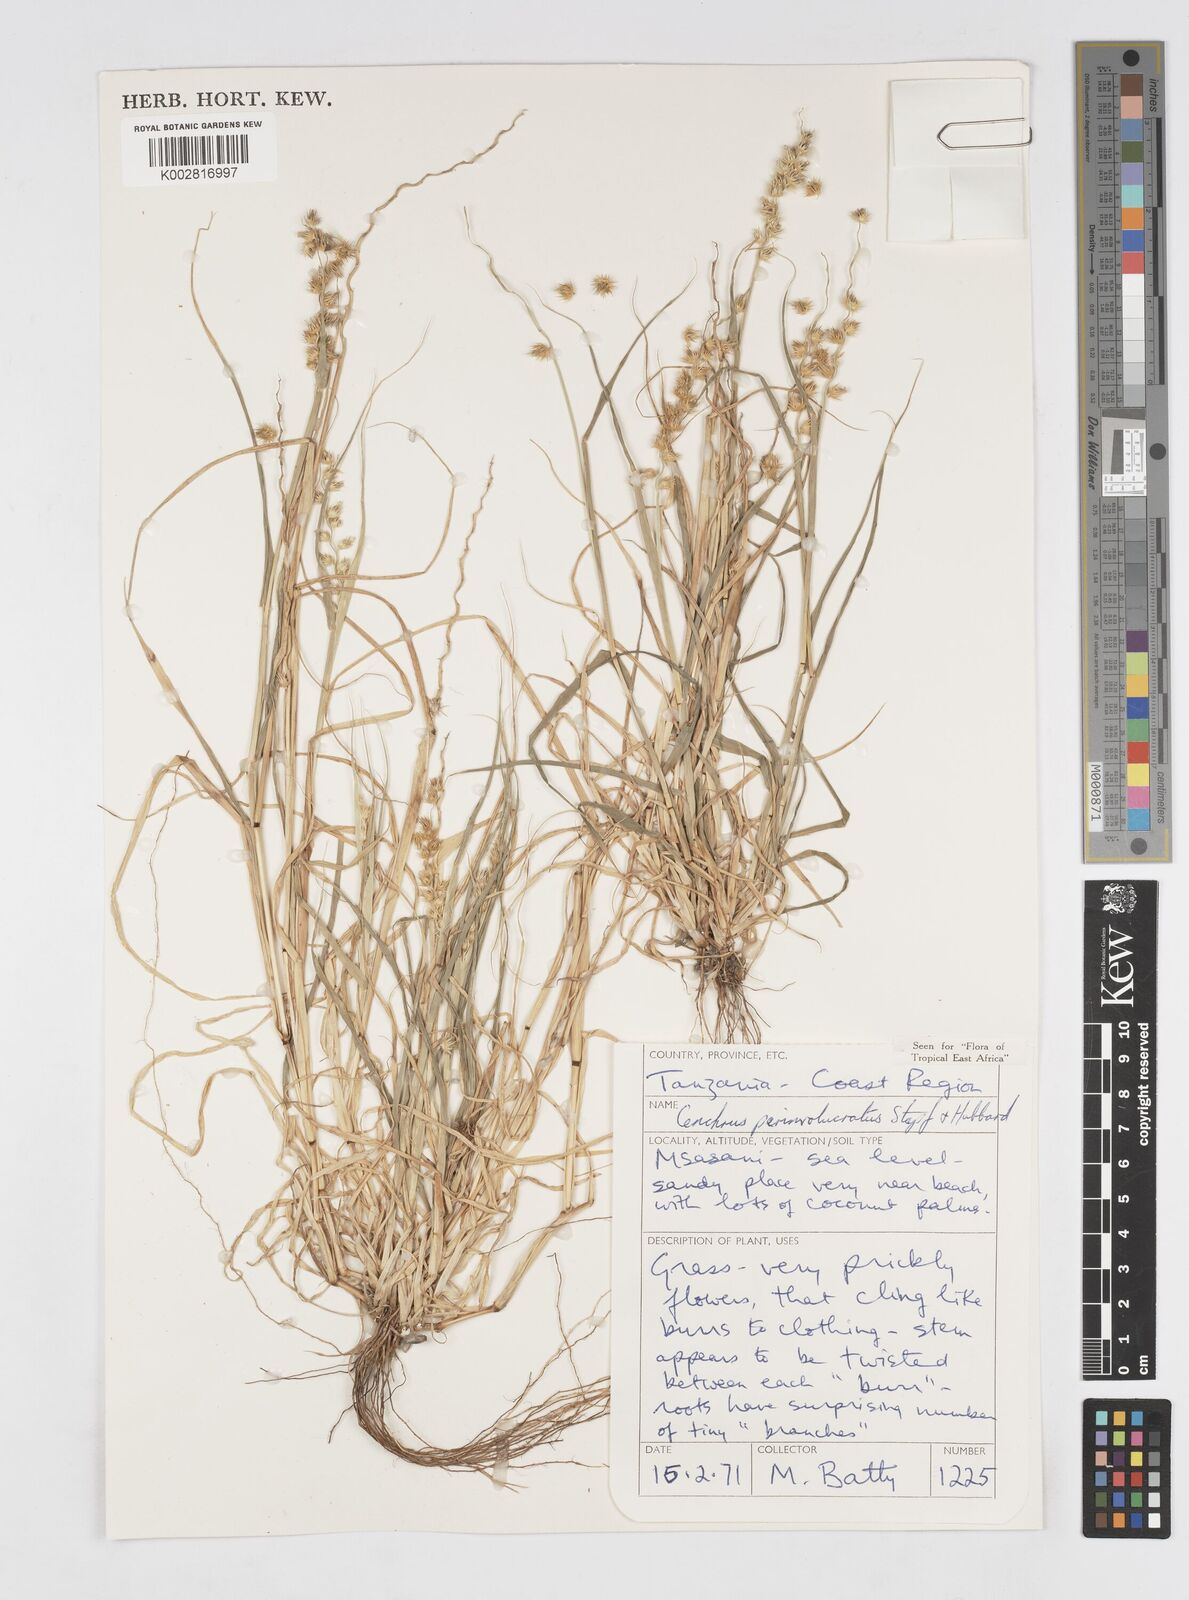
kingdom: Plantae
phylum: Tracheophyta
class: Liliopsida
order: Poales
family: Poaceae
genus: Cenchrus
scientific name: Cenchrus biflorus
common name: Indian sandbur
